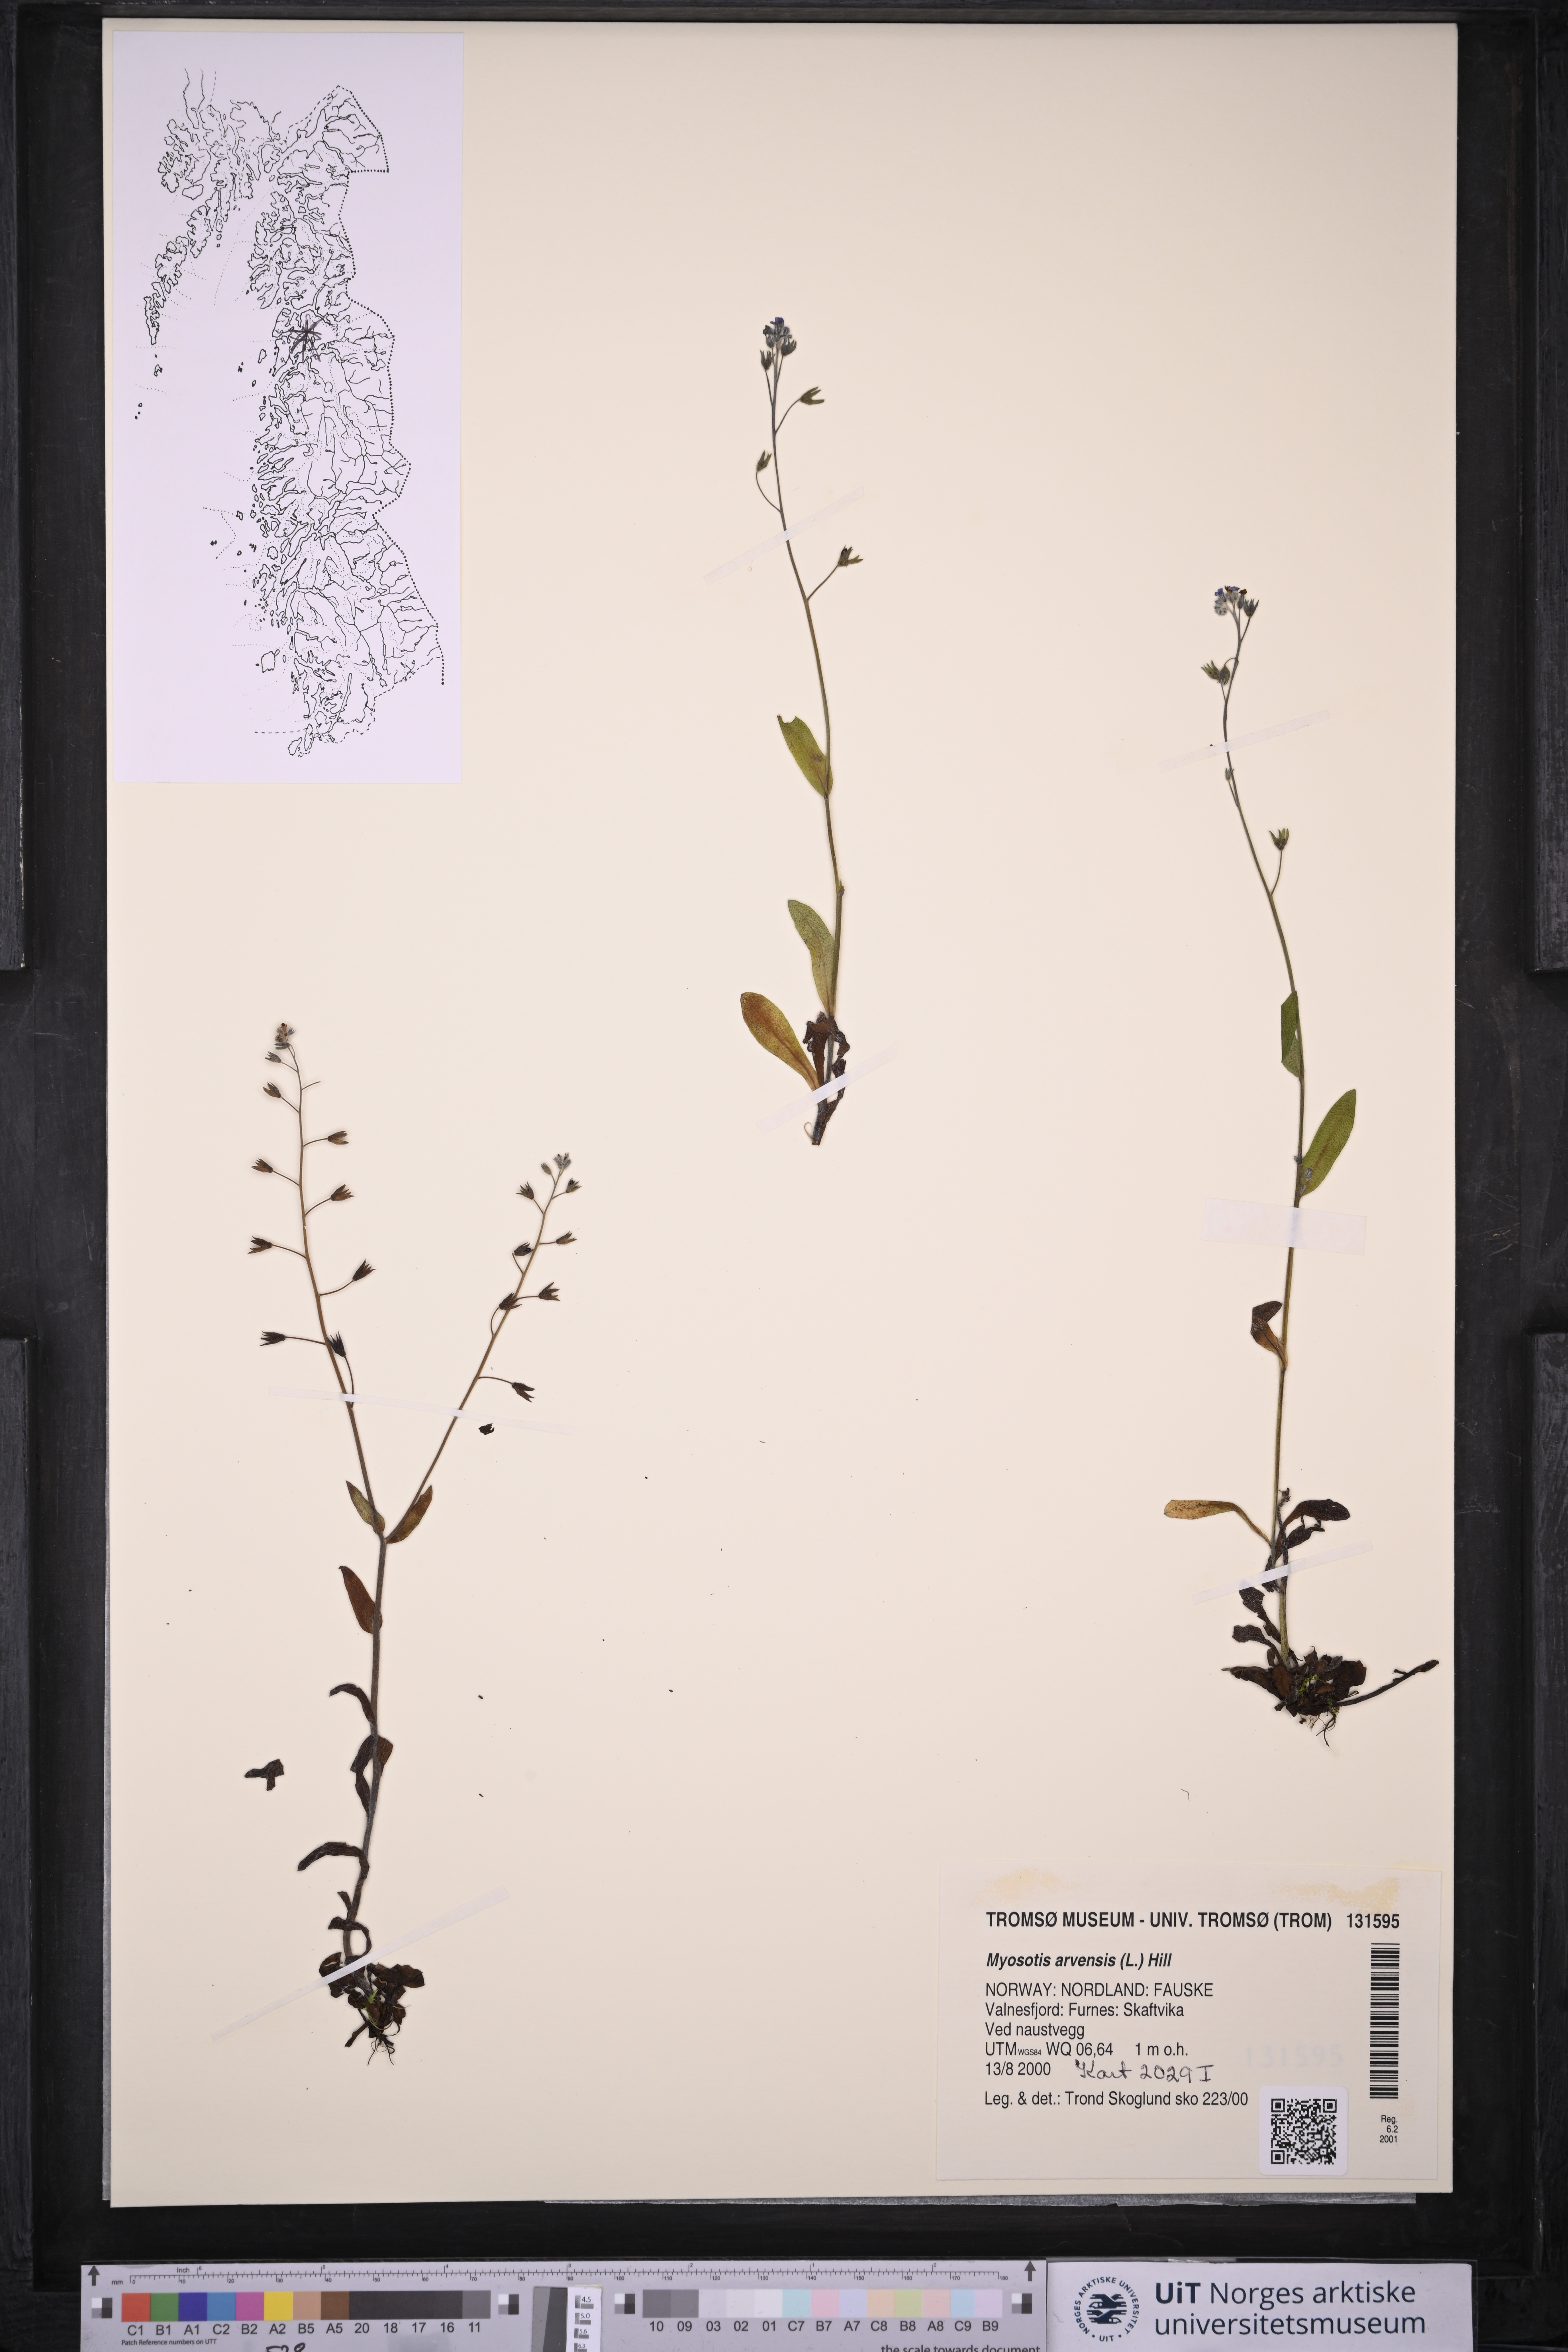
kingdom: Plantae
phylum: Tracheophyta
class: Magnoliopsida
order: Boraginales
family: Boraginaceae
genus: Myosotis
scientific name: Myosotis arvensis
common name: Field forget-me-not
